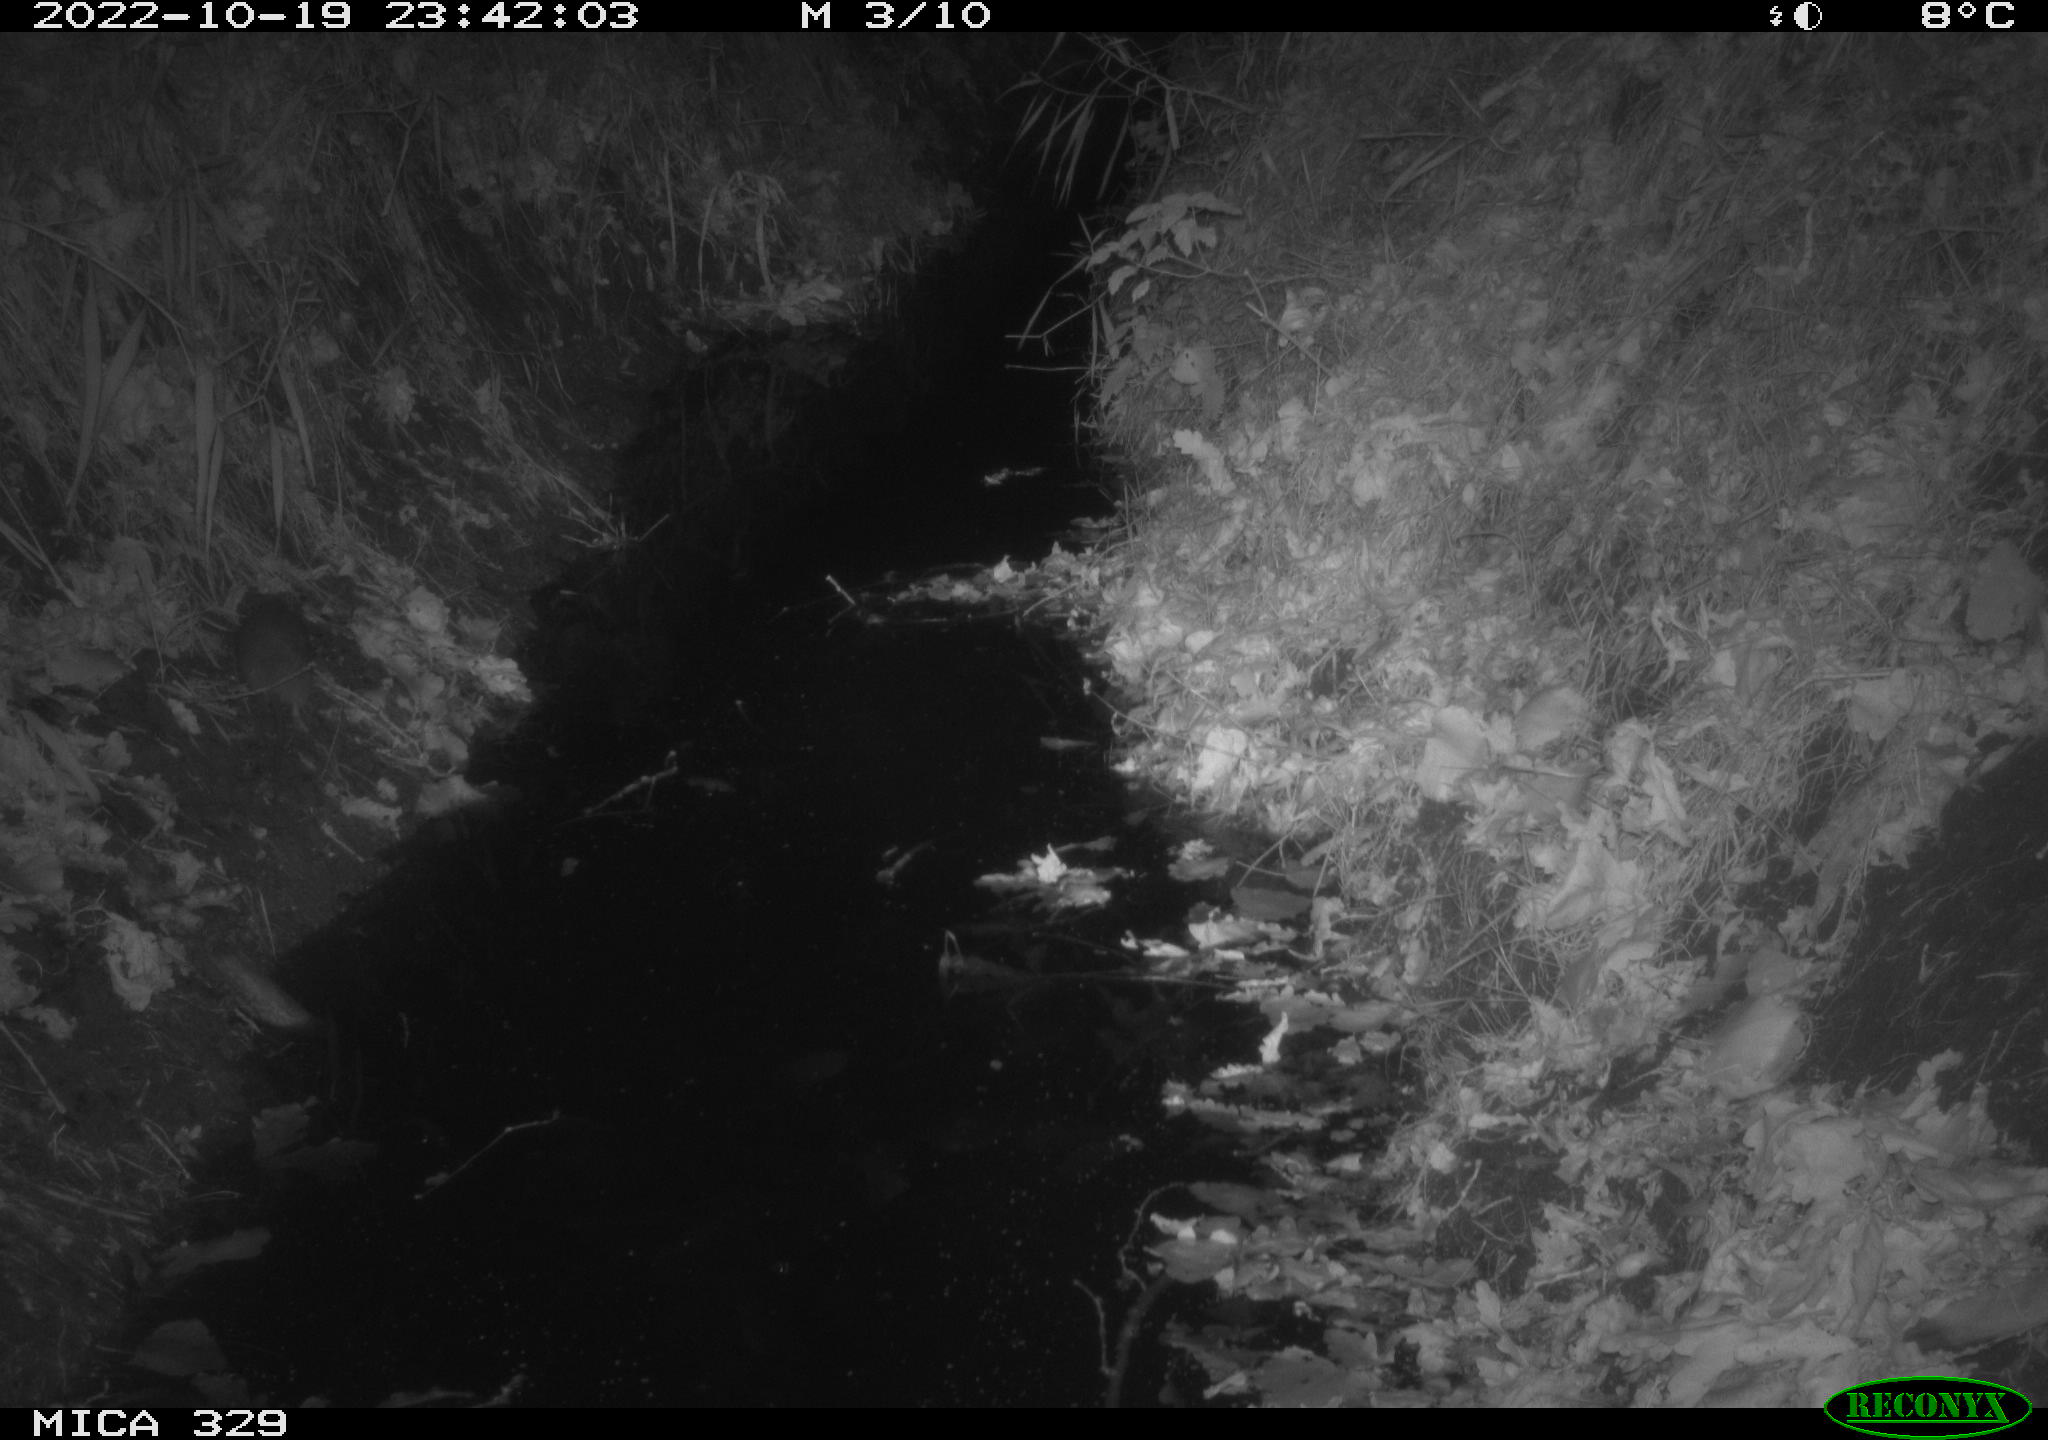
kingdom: Animalia
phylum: Chordata
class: Mammalia
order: Rodentia
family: Cricetidae
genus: Ondatra
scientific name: Ondatra zibethicus
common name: Muskrat
